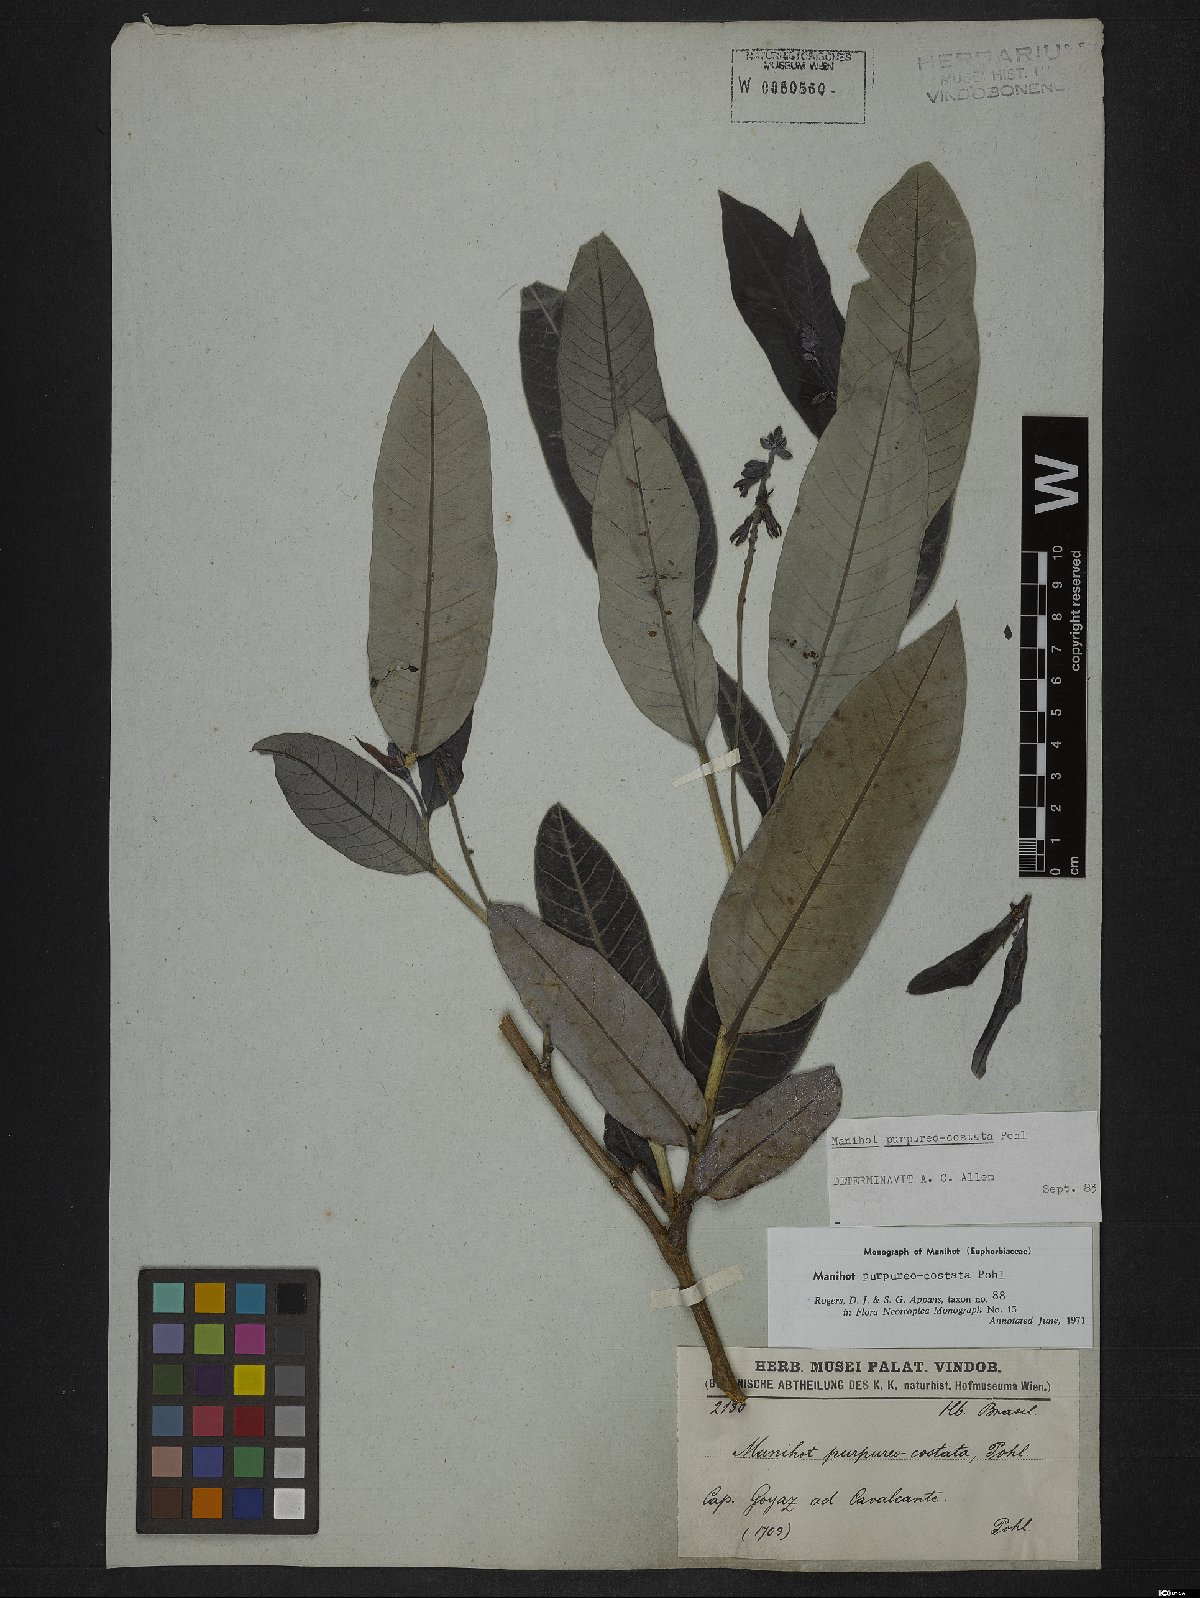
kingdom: Plantae
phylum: Tracheophyta
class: Magnoliopsida
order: Malpighiales
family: Euphorbiaceae
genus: Manihot
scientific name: Manihot purpureocostata
